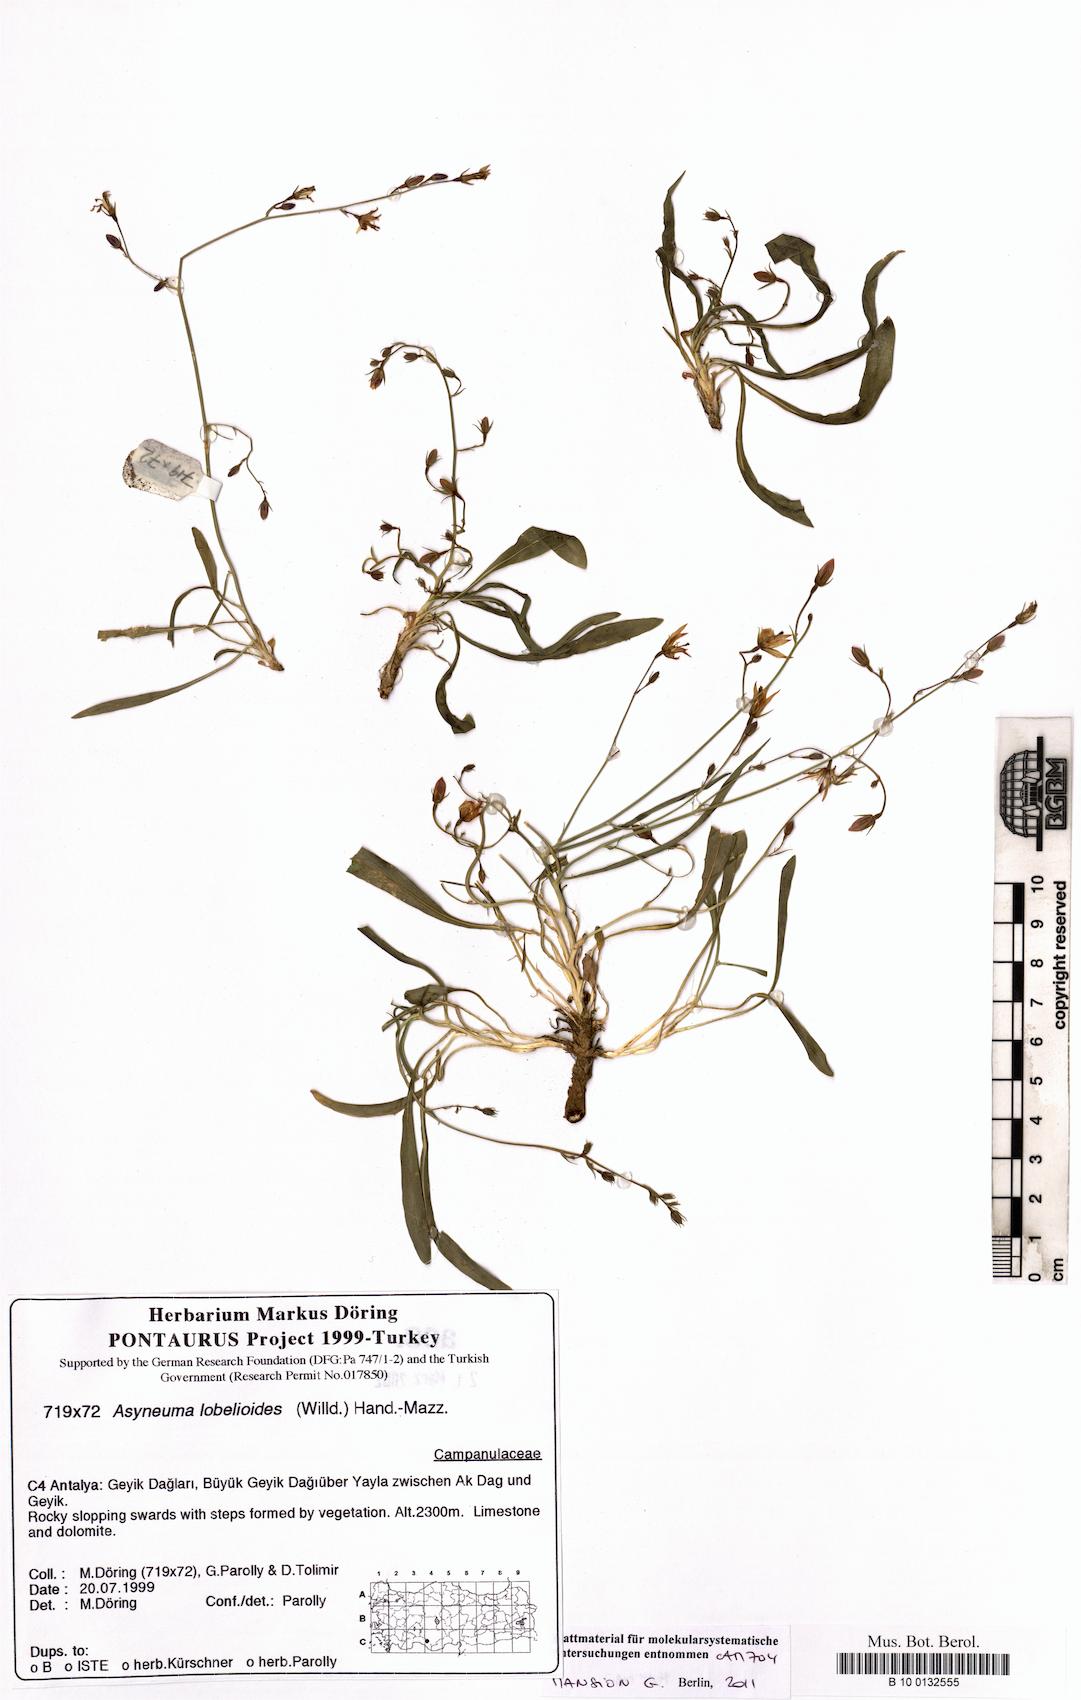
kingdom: Plantae
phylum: Tracheophyta
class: Magnoliopsida
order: Asterales
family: Campanulaceae
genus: Asyneuma
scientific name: Asyneuma lobelioides
